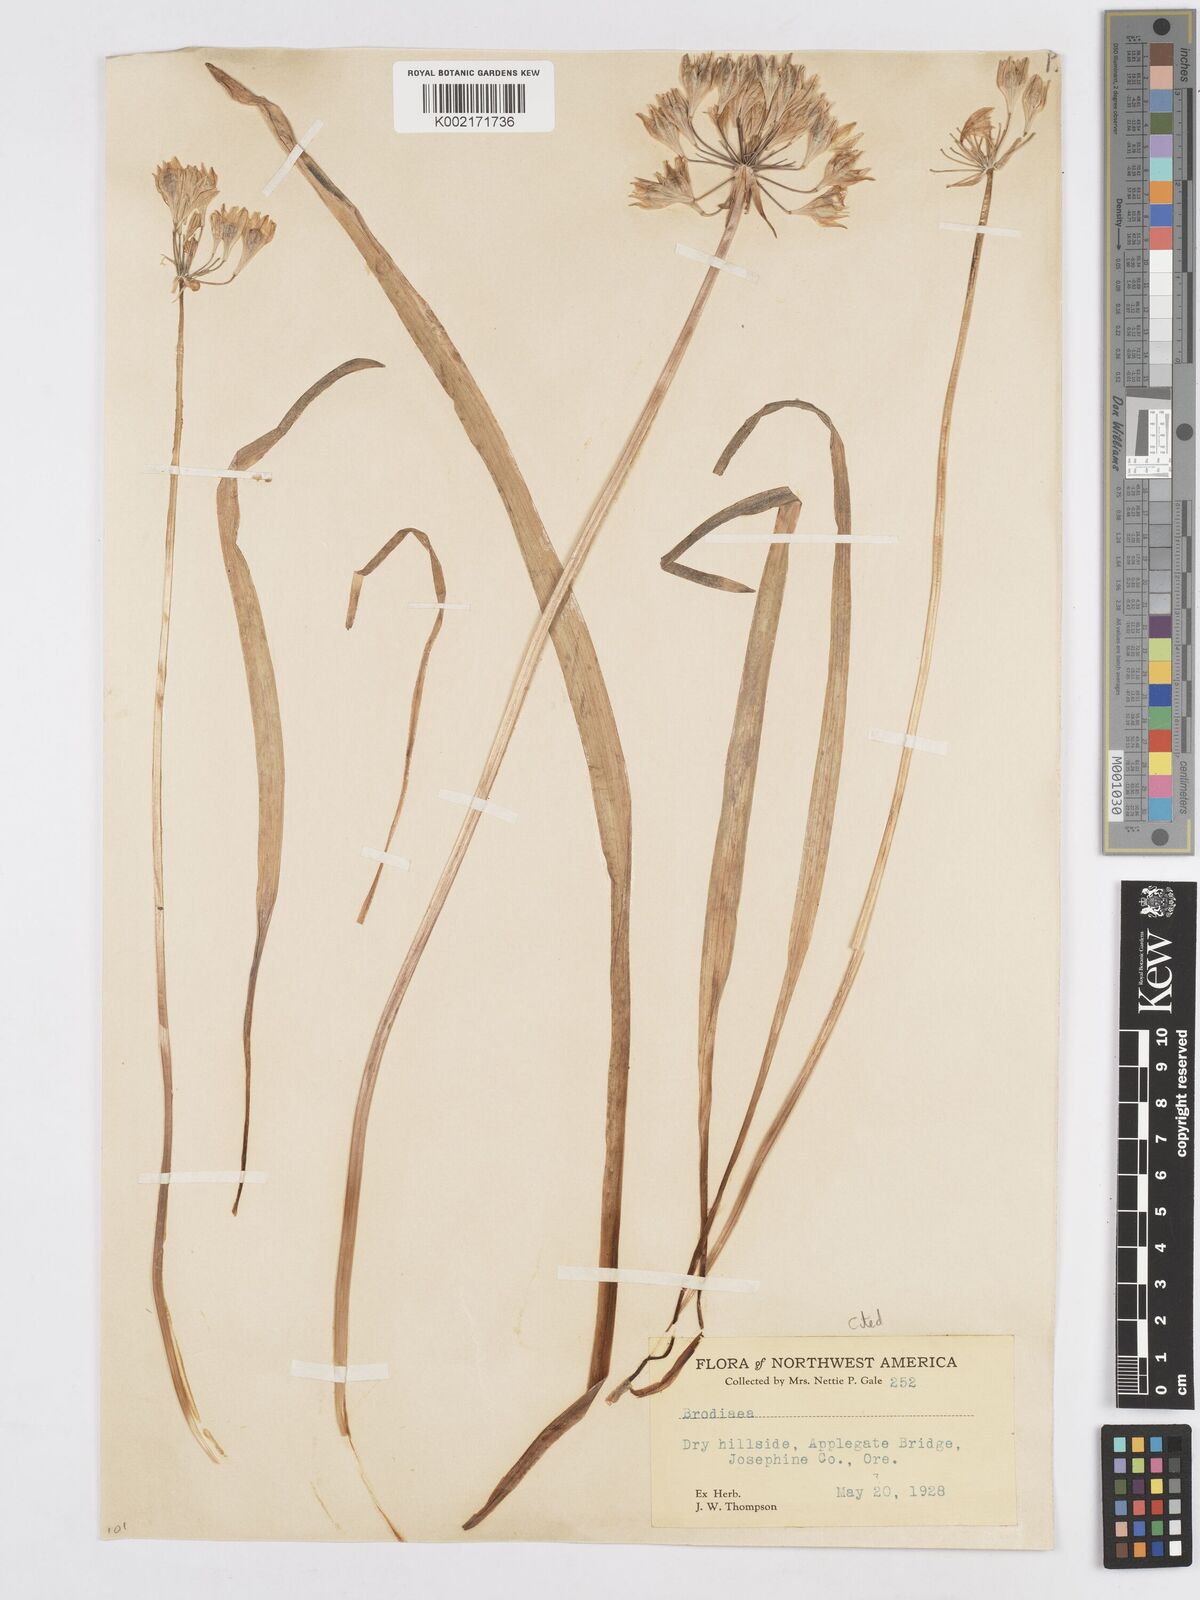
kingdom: Plantae
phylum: Tracheophyta
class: Liliopsida
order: Asparagales
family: Asparagaceae
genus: Triteleia
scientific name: Triteleia crocea
